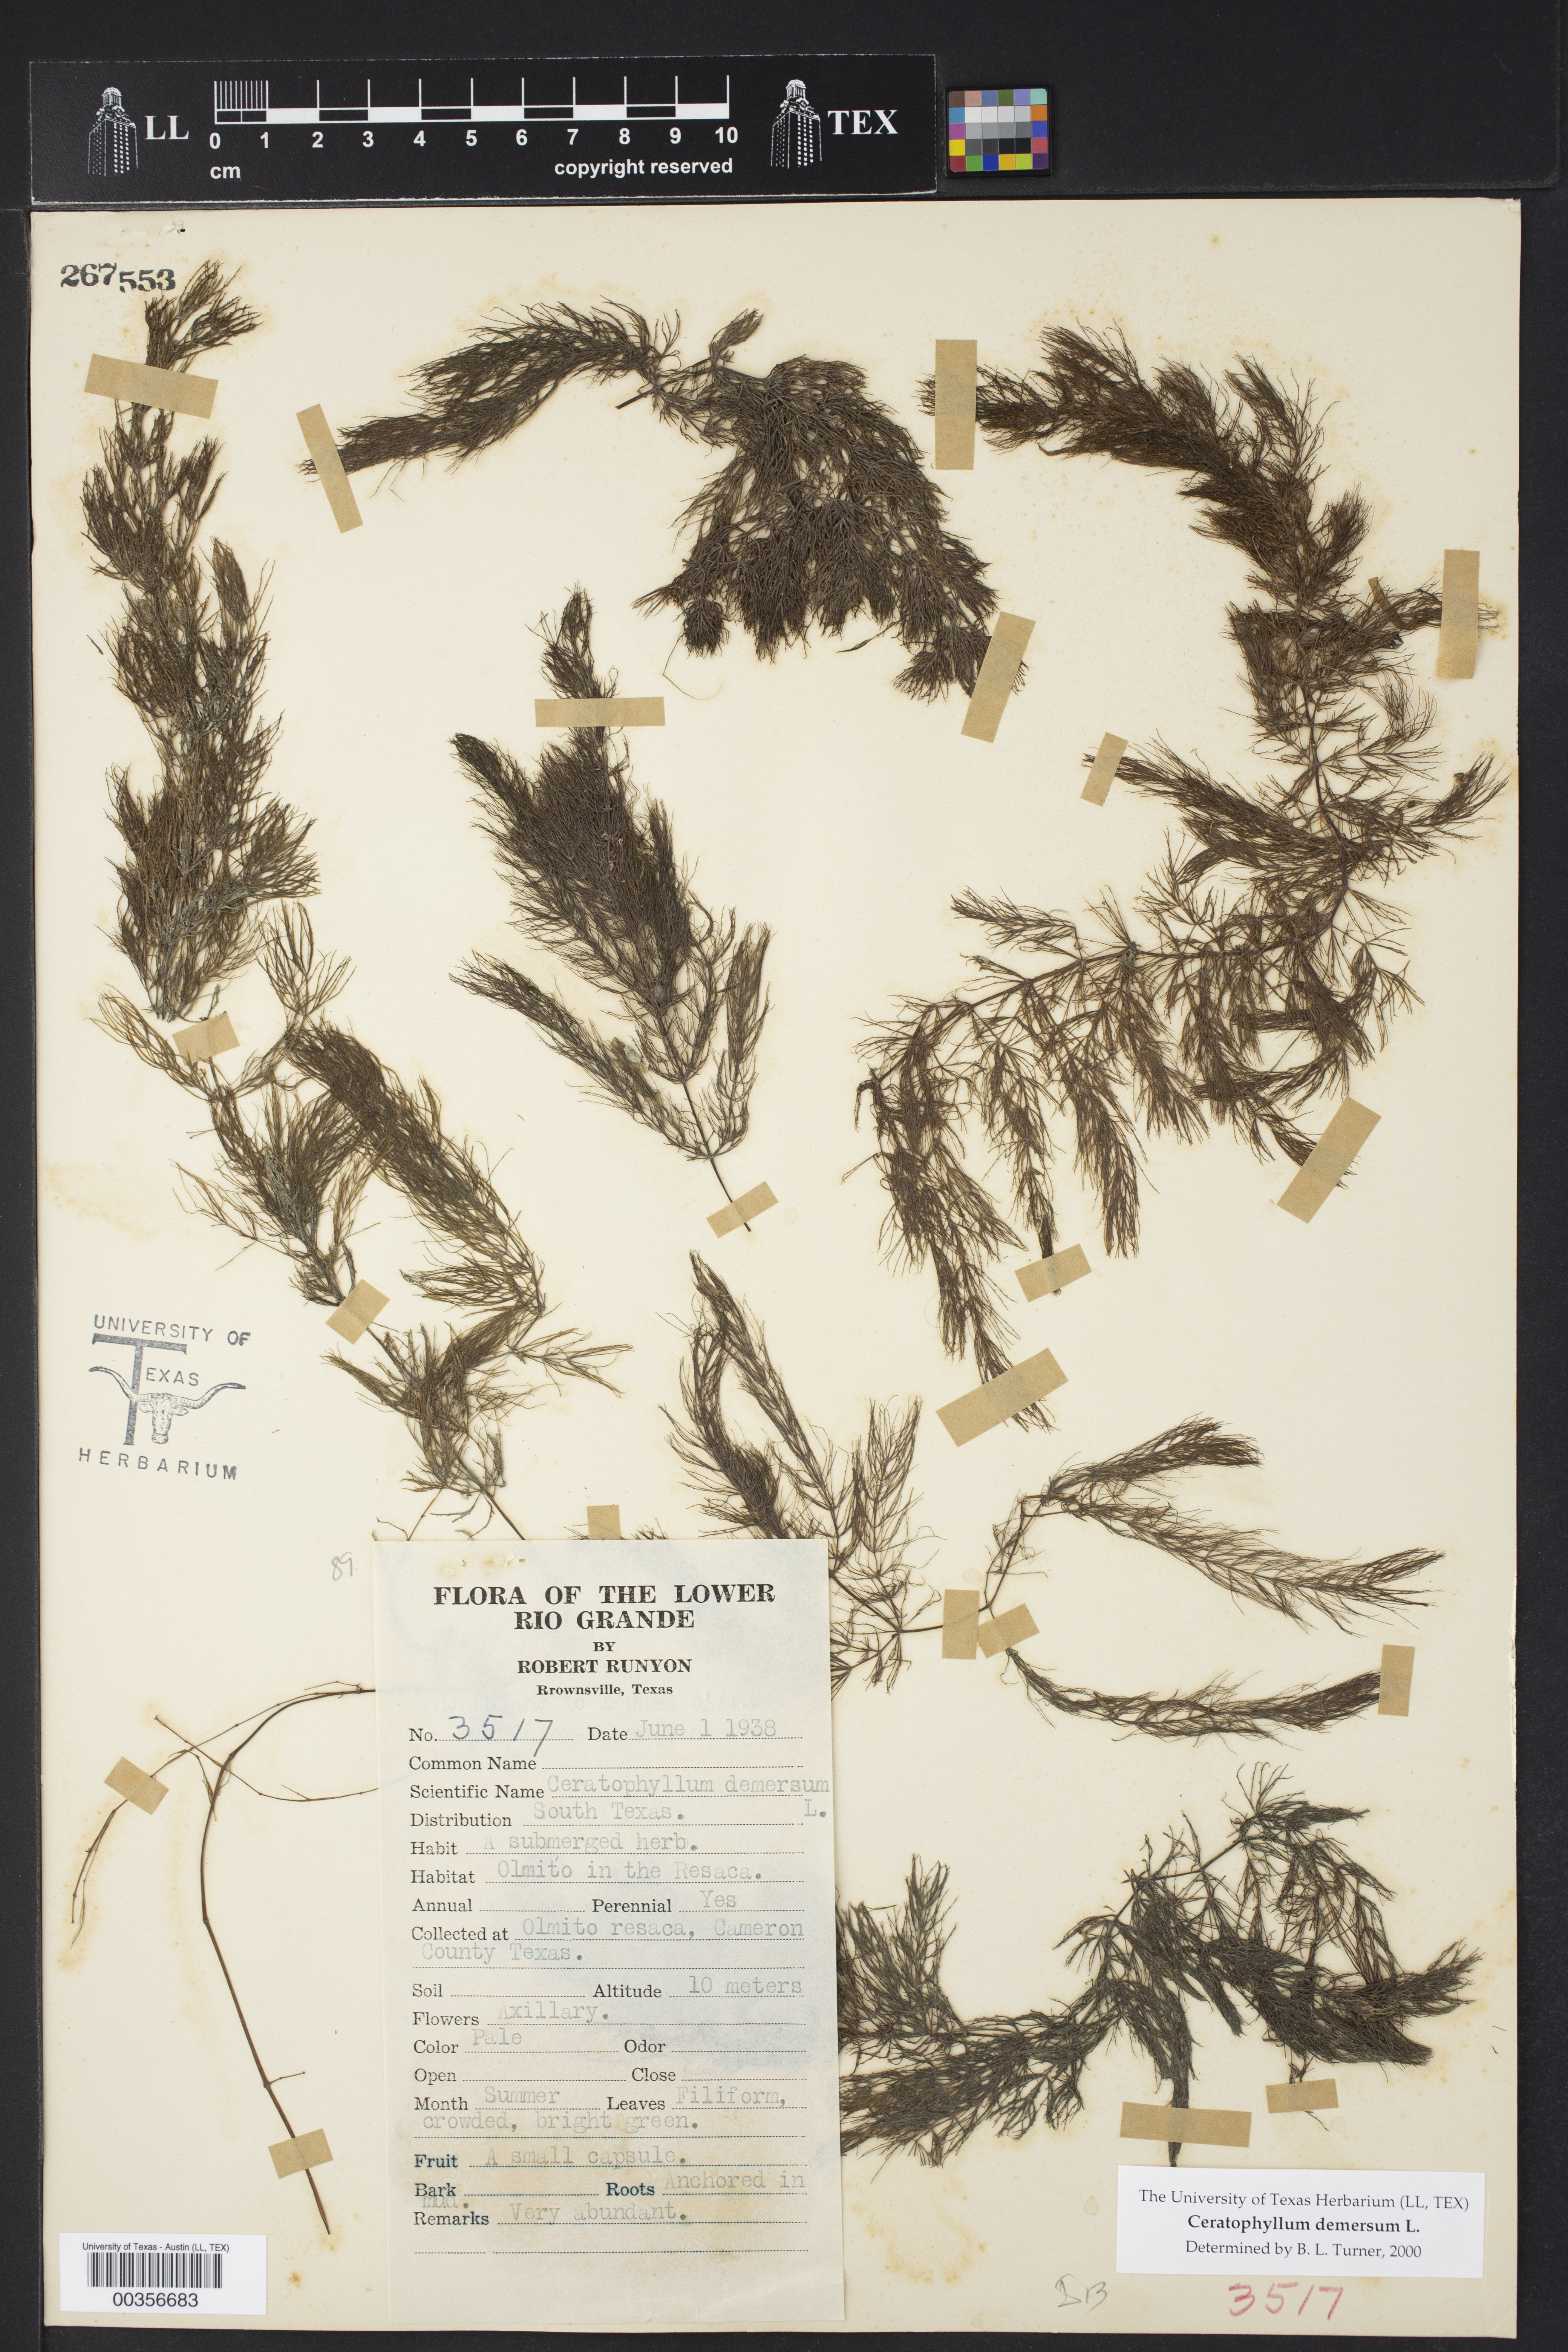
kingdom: Plantae
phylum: Tracheophyta
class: Magnoliopsida
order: Ceratophyllales
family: Ceratophyllaceae
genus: Ceratophyllum
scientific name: Ceratophyllum demersum
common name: Rigid hornwort
